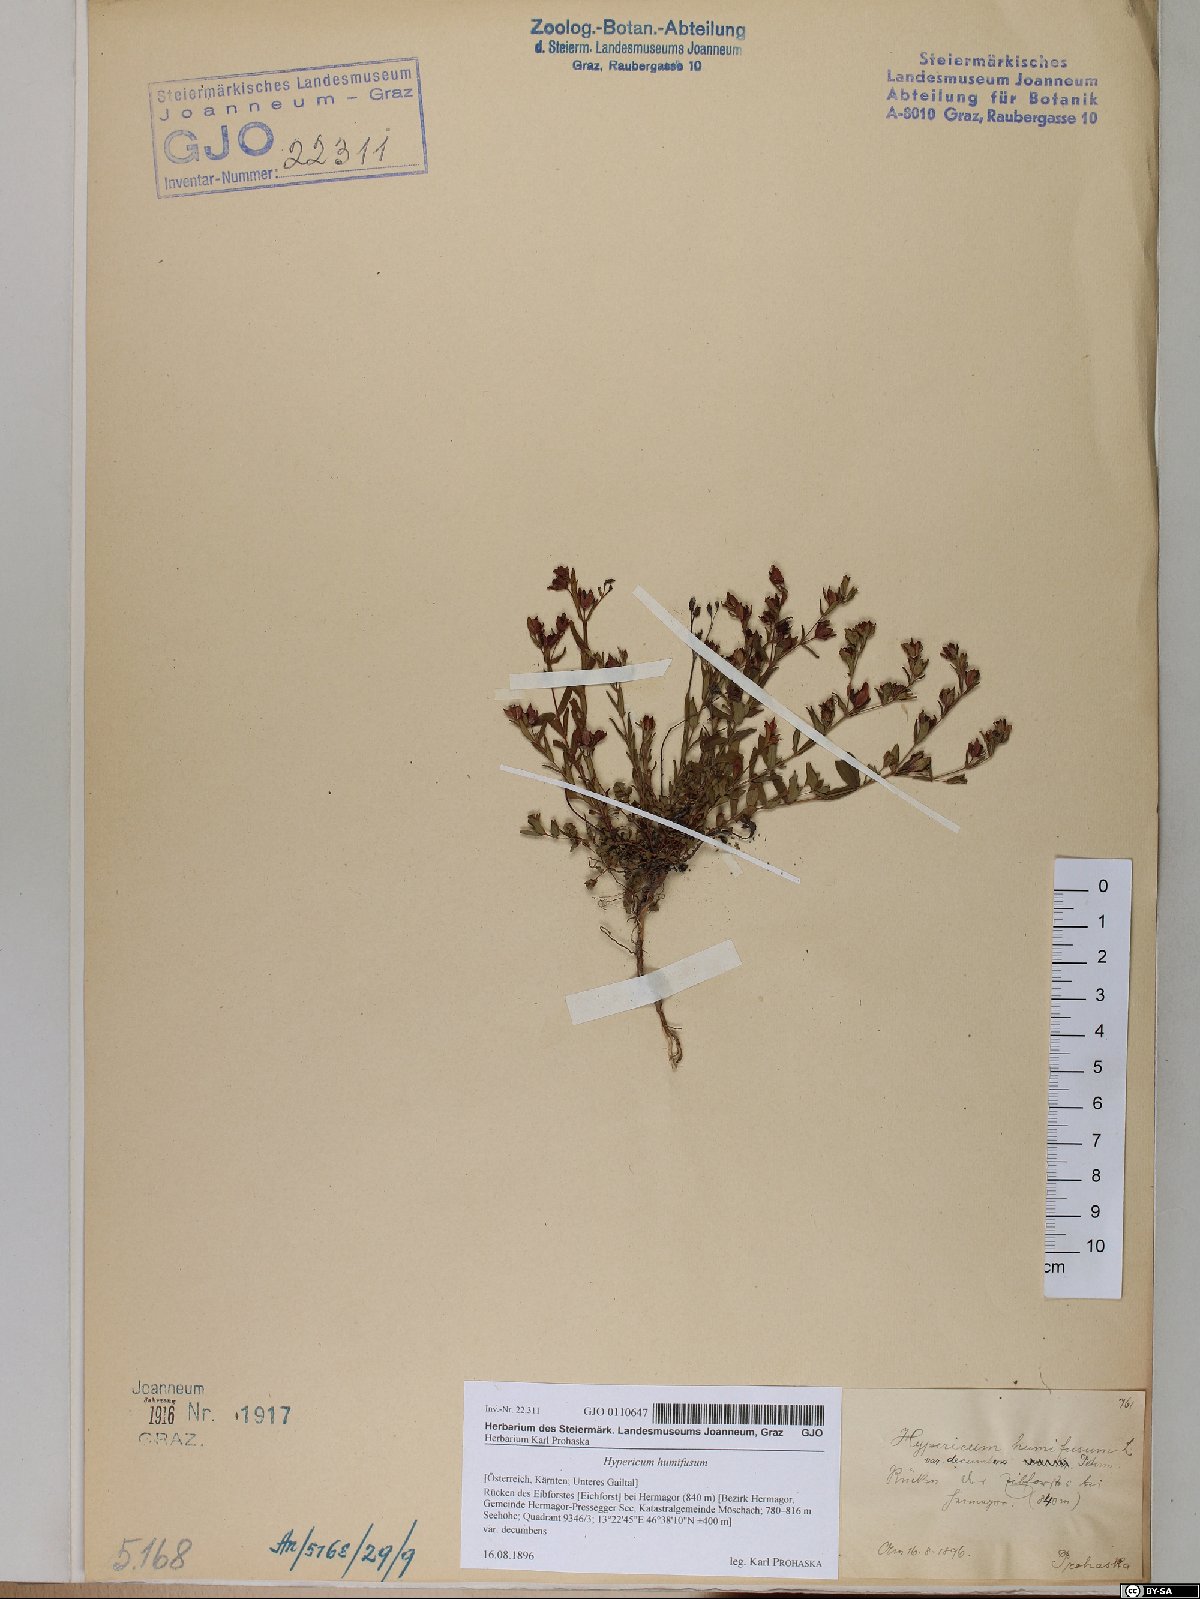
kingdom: Plantae
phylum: Tracheophyta
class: Magnoliopsida
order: Malpighiales
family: Hypericaceae
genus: Hypericum
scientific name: Hypericum humifusum
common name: Trailing st. john's-wort
